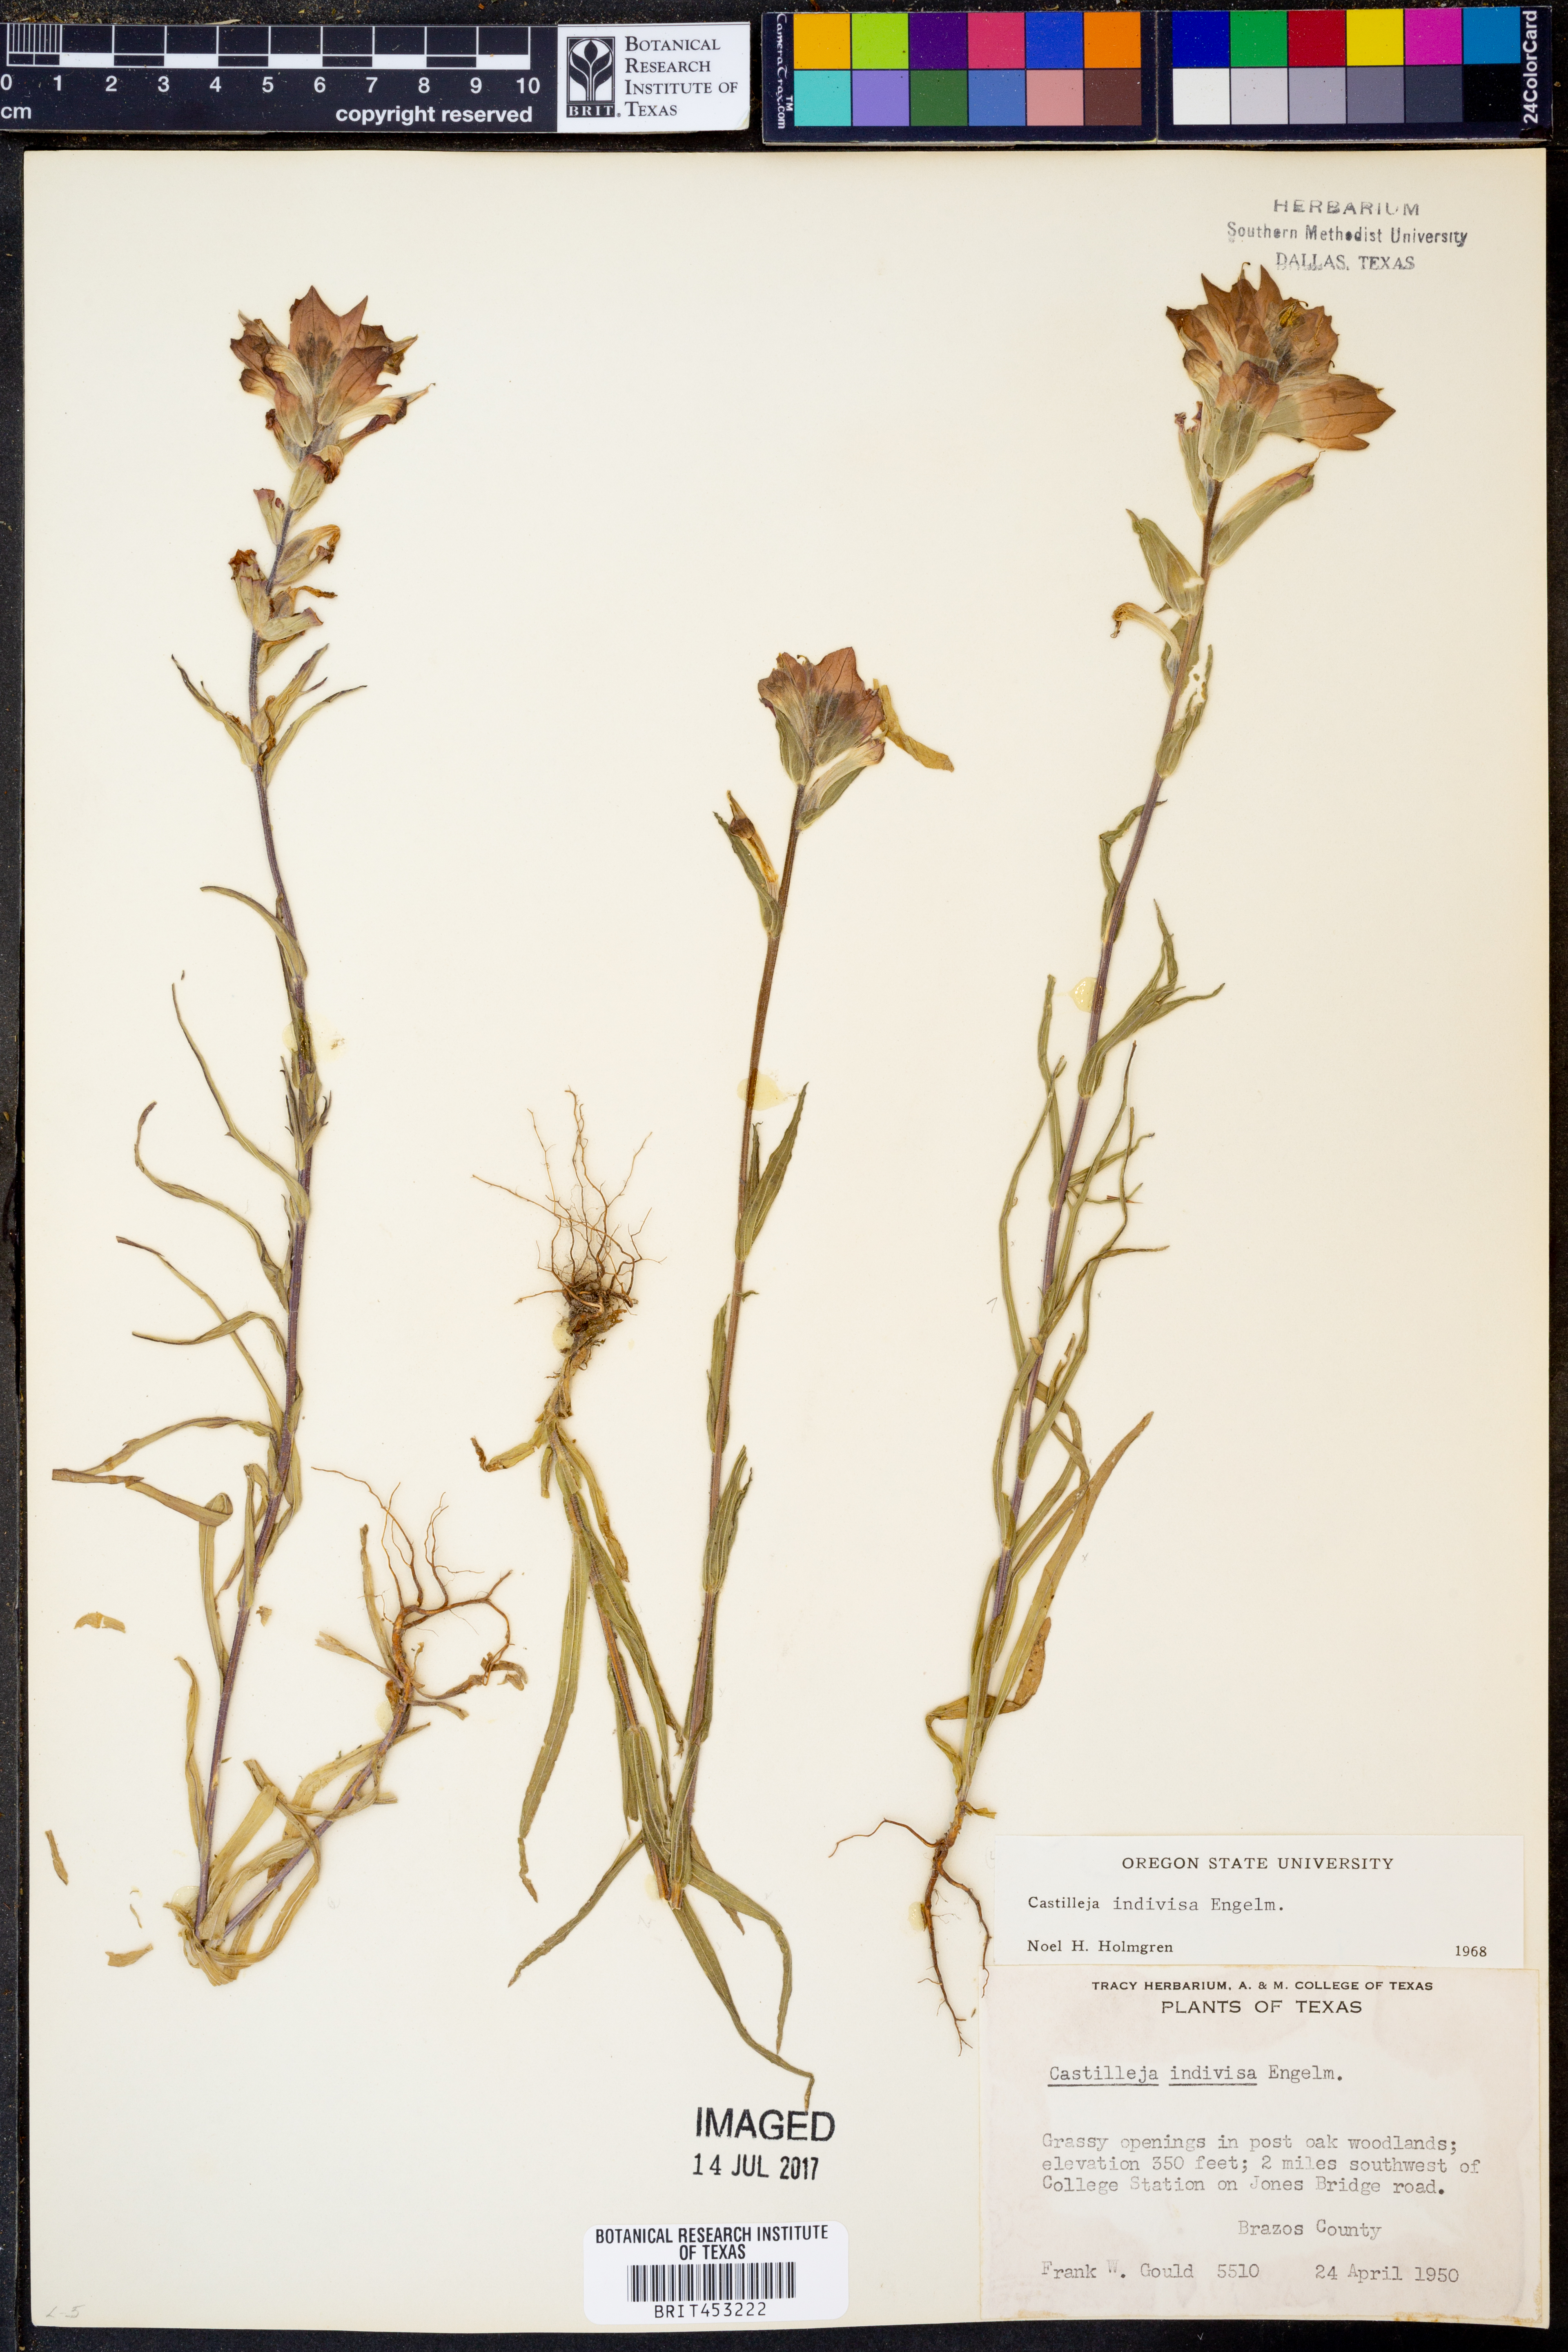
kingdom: Plantae
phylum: Tracheophyta
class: Magnoliopsida
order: Lamiales
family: Orobanchaceae
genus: Castilleja
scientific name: Castilleja indivisa
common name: Texas paintbrush
